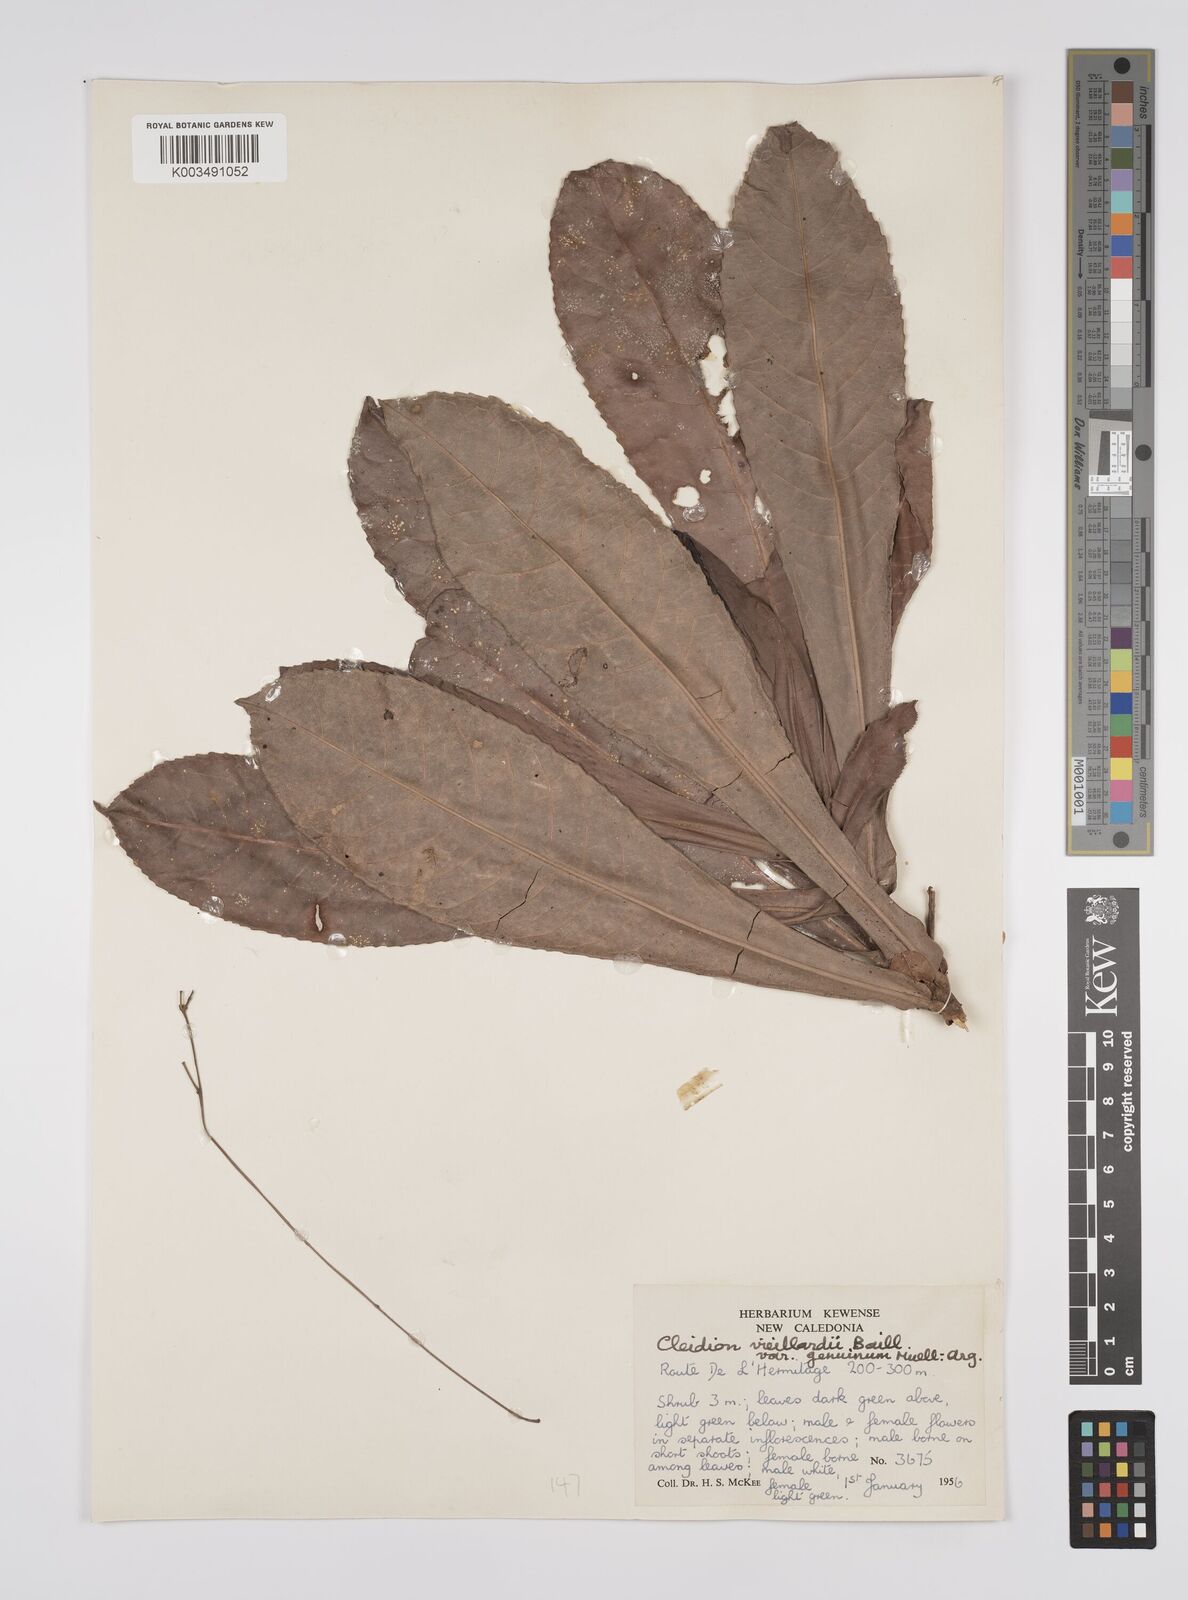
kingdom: Plantae
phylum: Tracheophyta
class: Magnoliopsida
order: Malpighiales
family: Euphorbiaceae
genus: Cleidion
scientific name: Cleidion vieillardii
